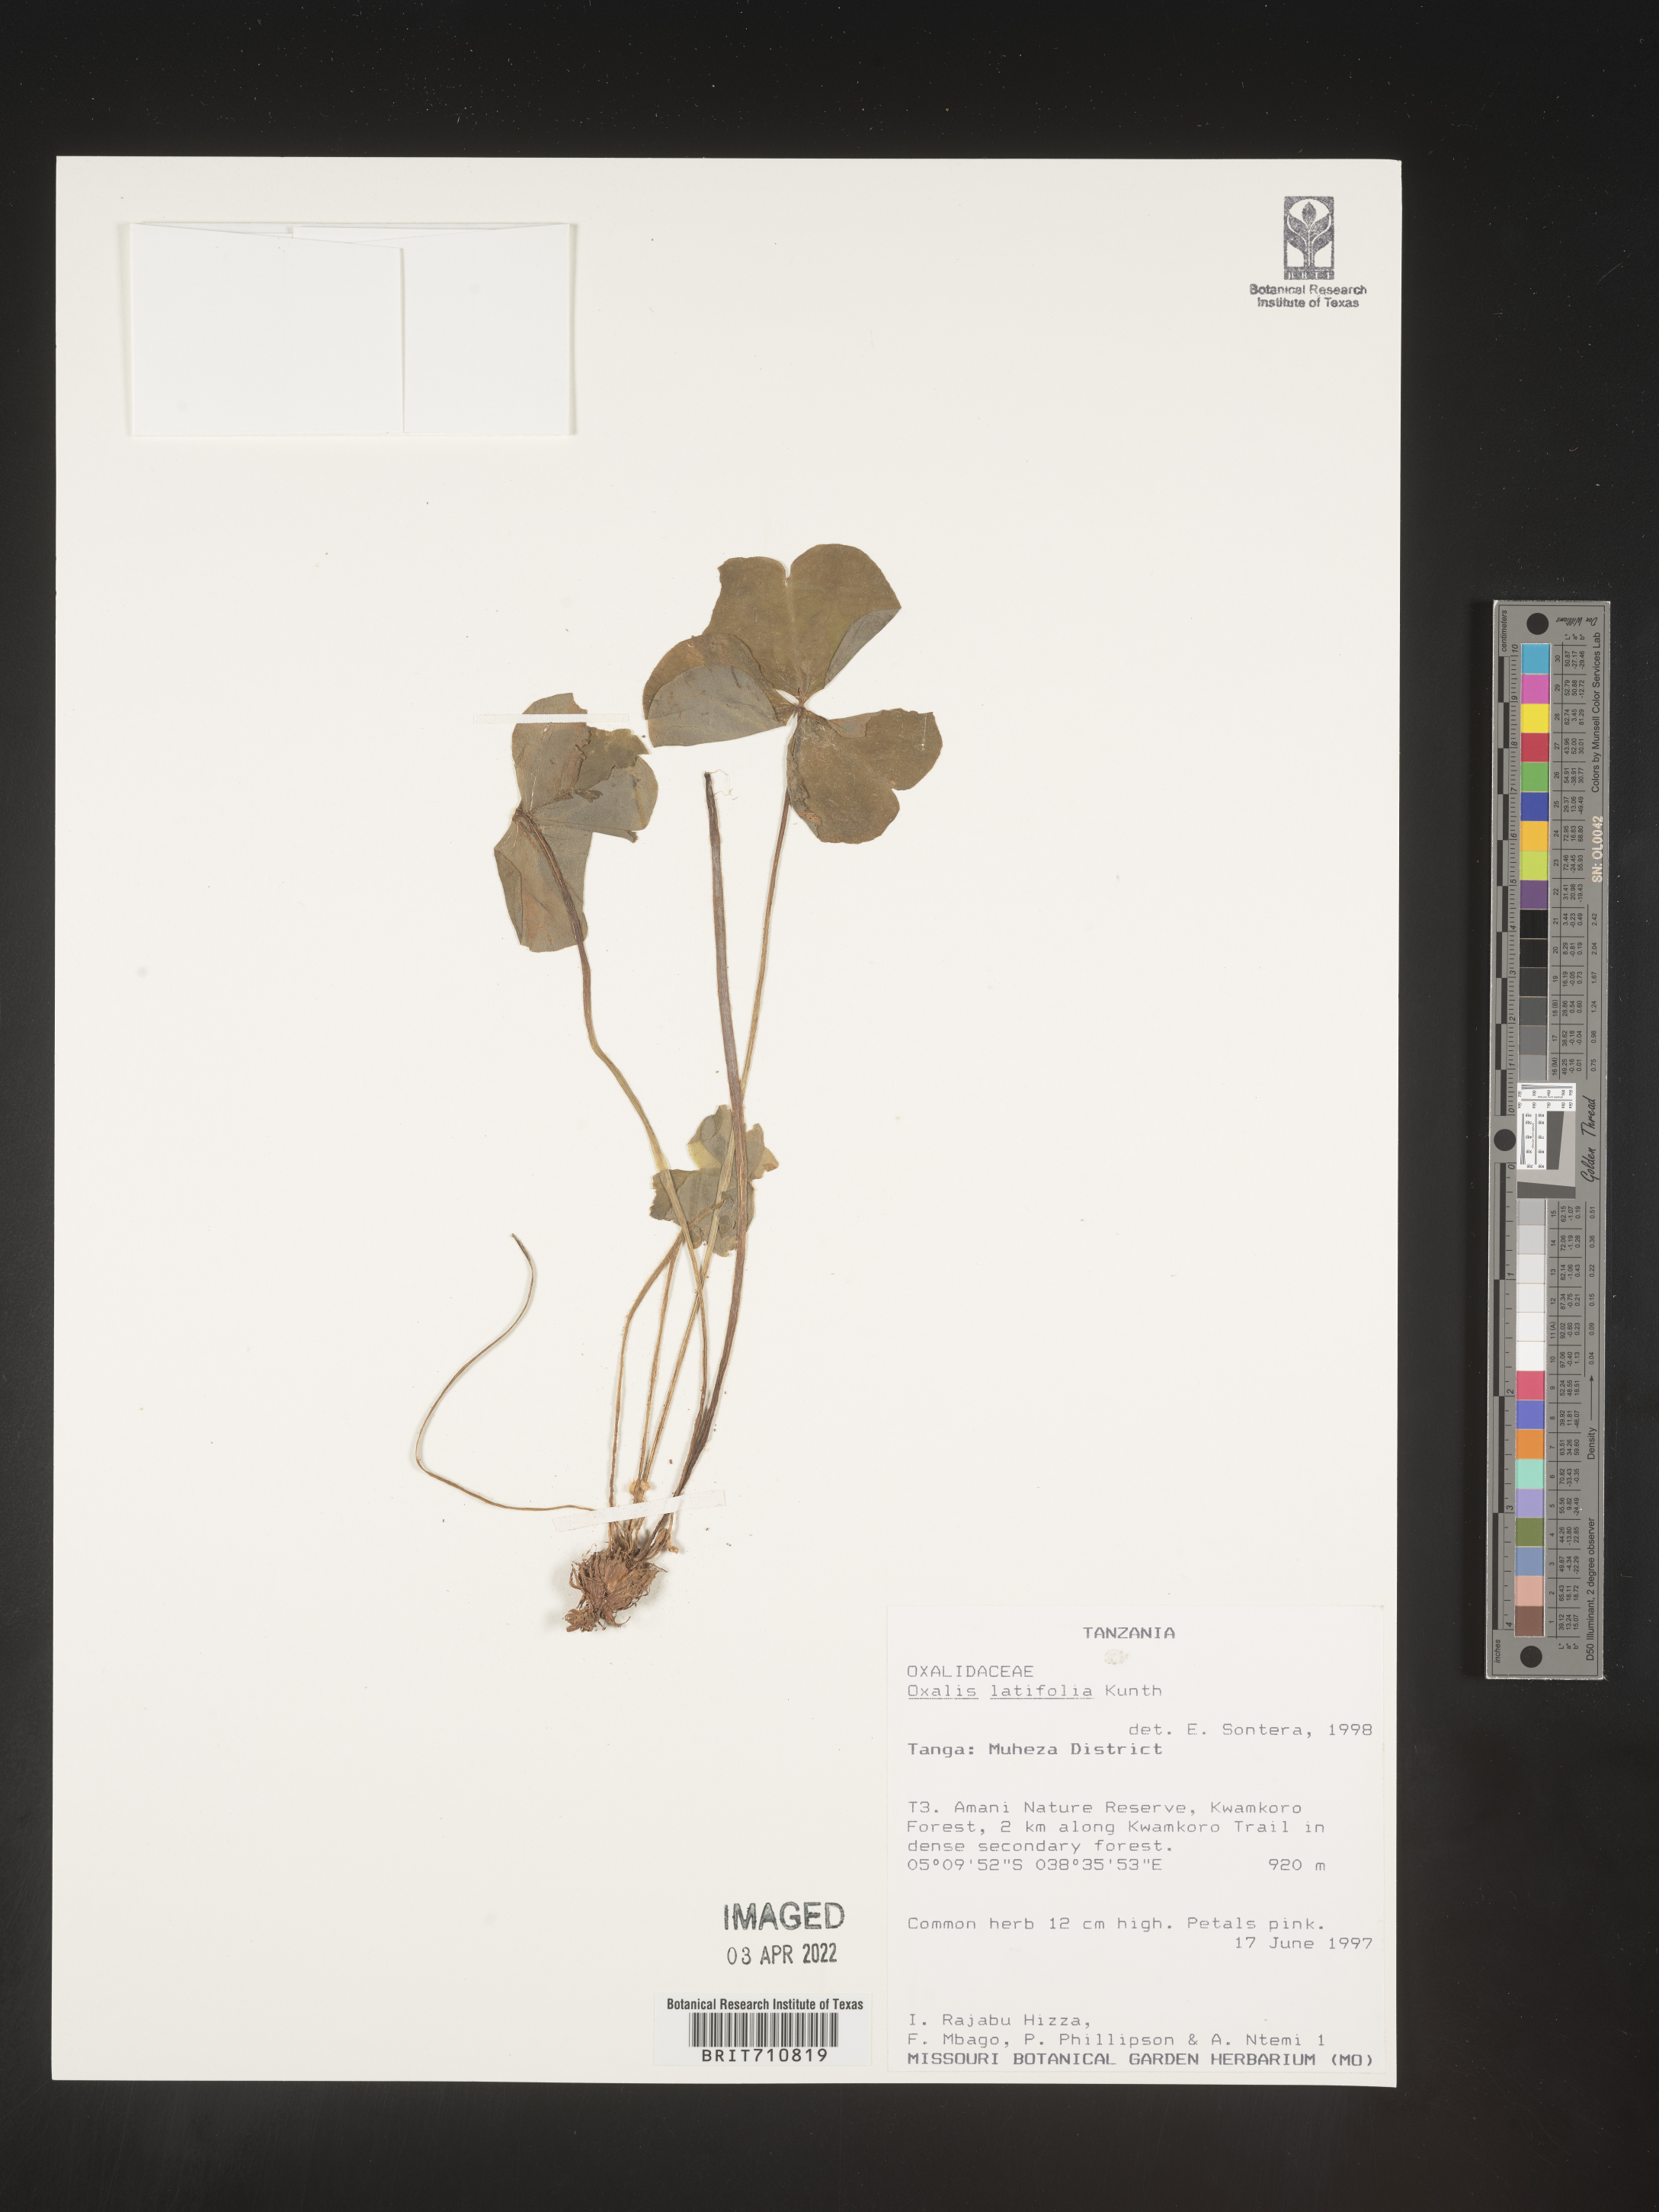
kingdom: Plantae
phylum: Tracheophyta
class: Magnoliopsida
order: Oxalidales
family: Oxalidaceae
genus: Oxalis
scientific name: Oxalis
